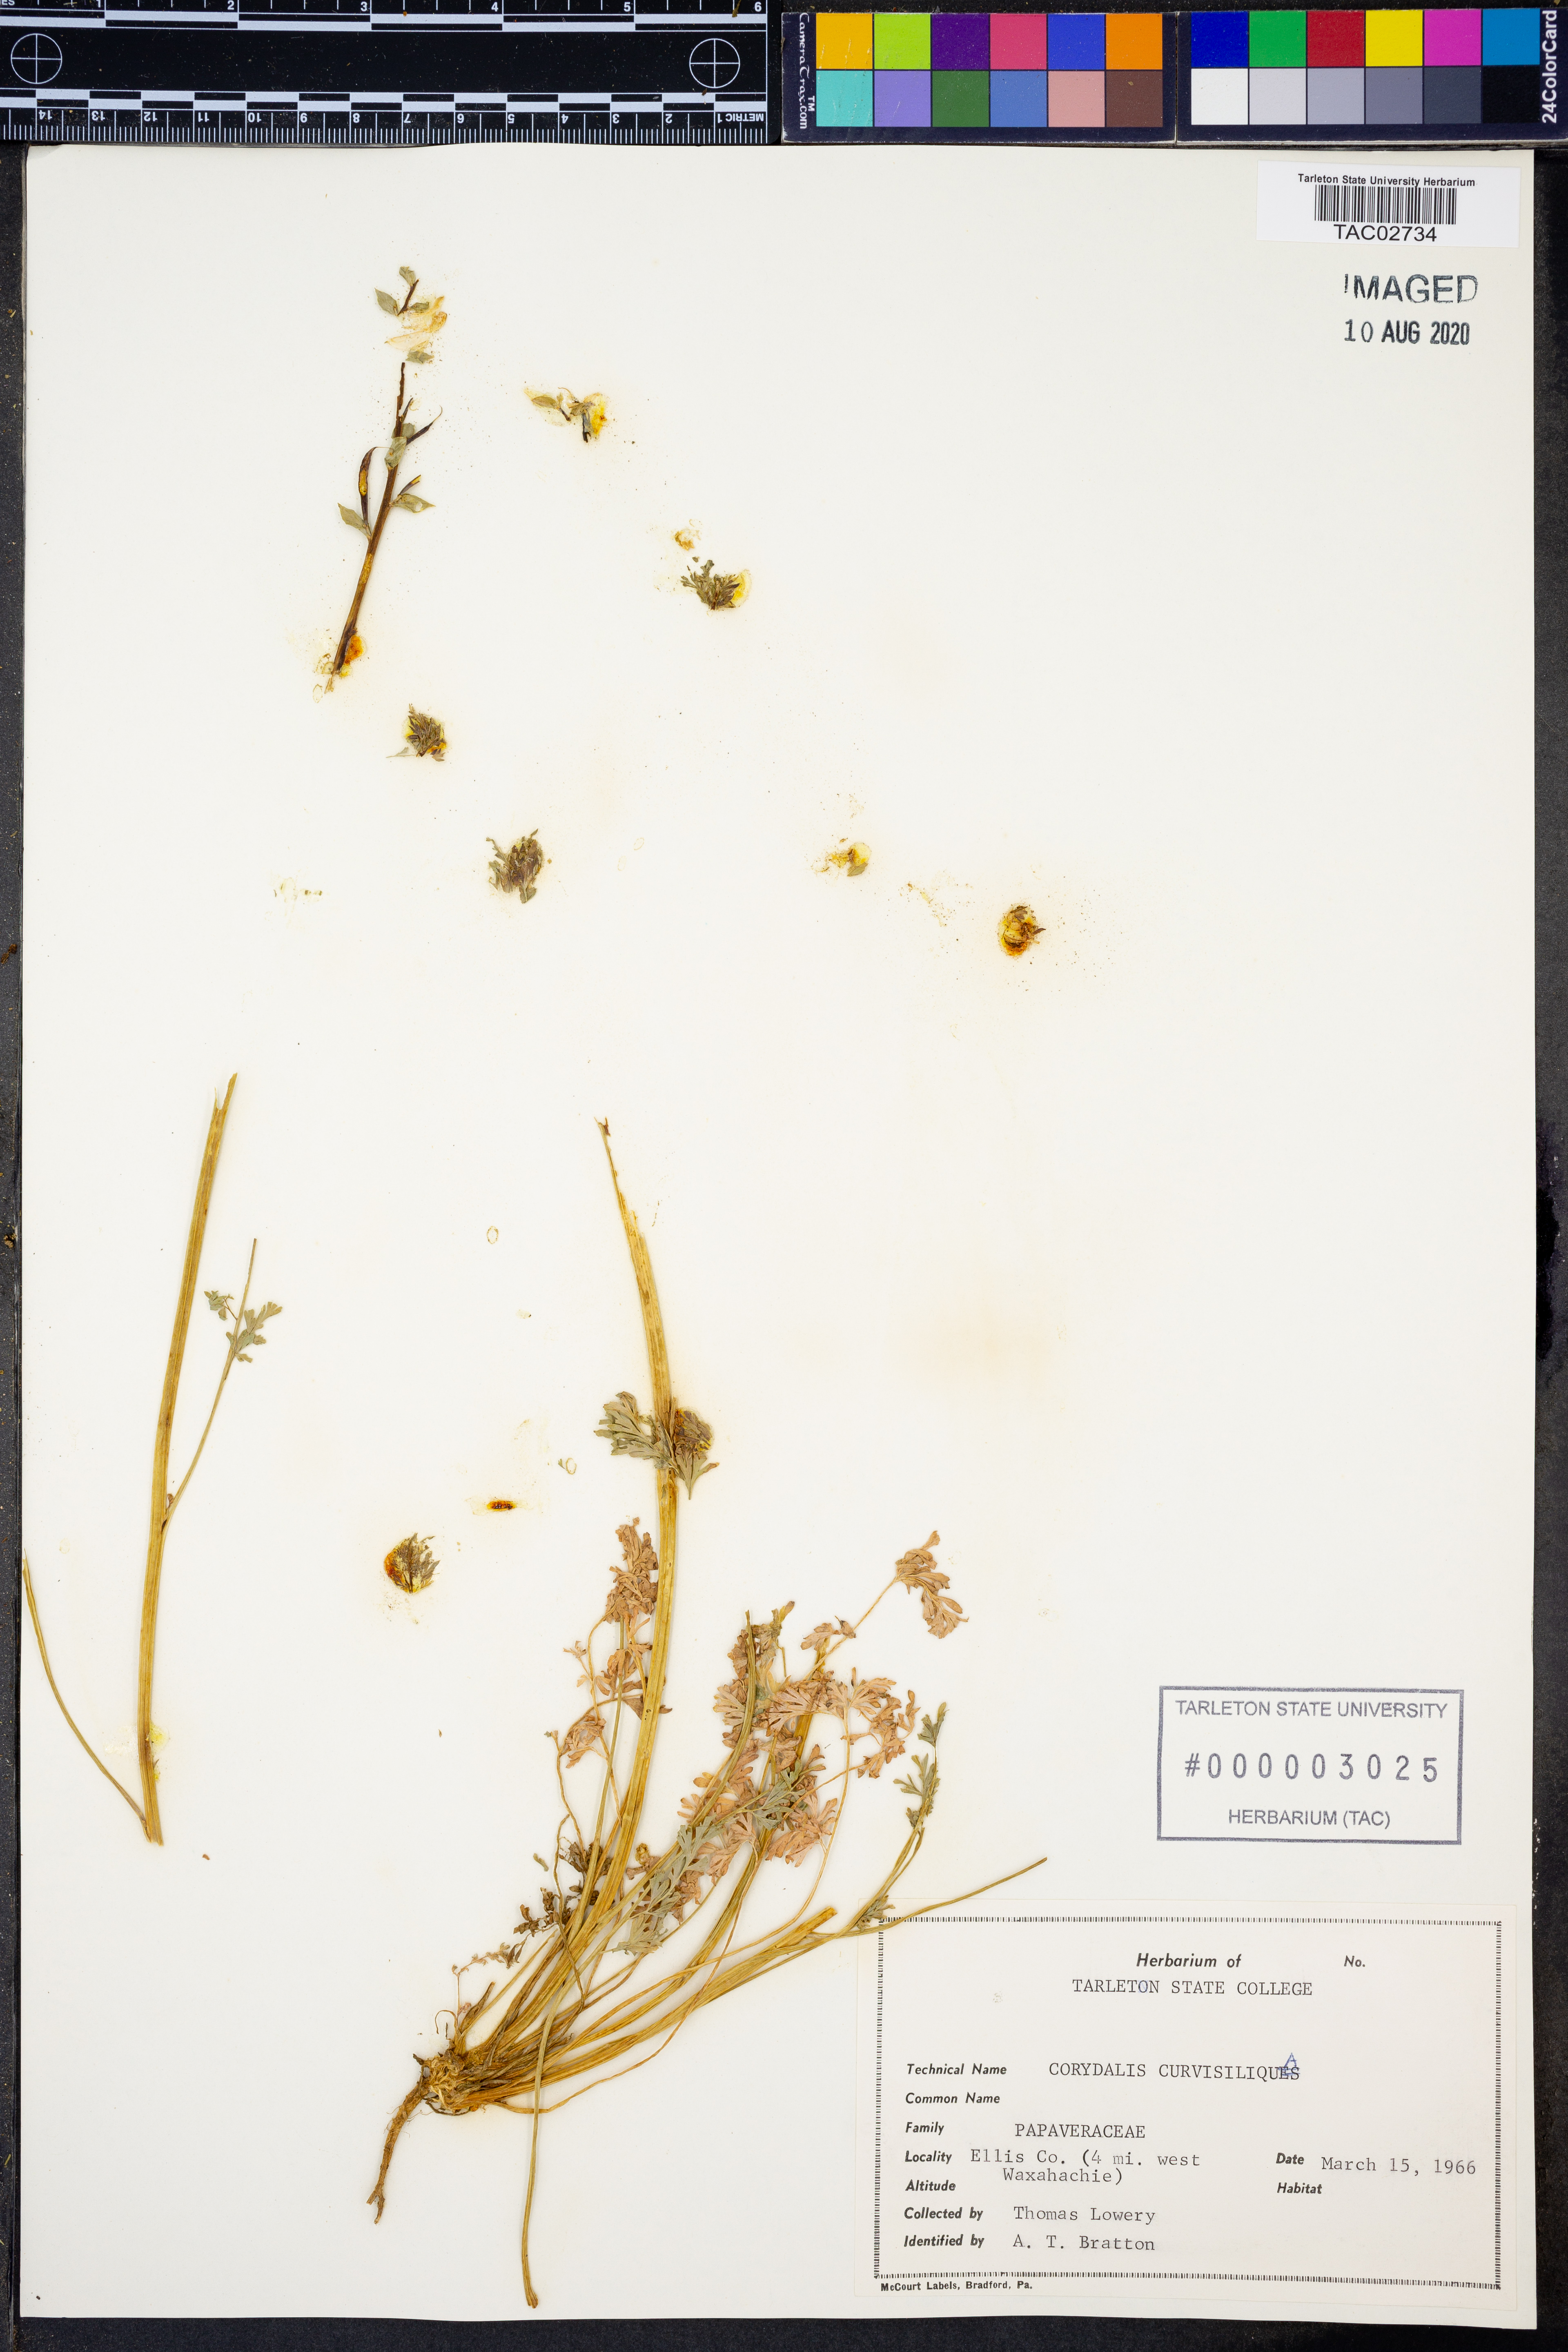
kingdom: Plantae
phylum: Tracheophyta
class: Magnoliopsida
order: Ranunculales
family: Papaveraceae
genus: Corydalis
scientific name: Corydalis curvisiliqua
